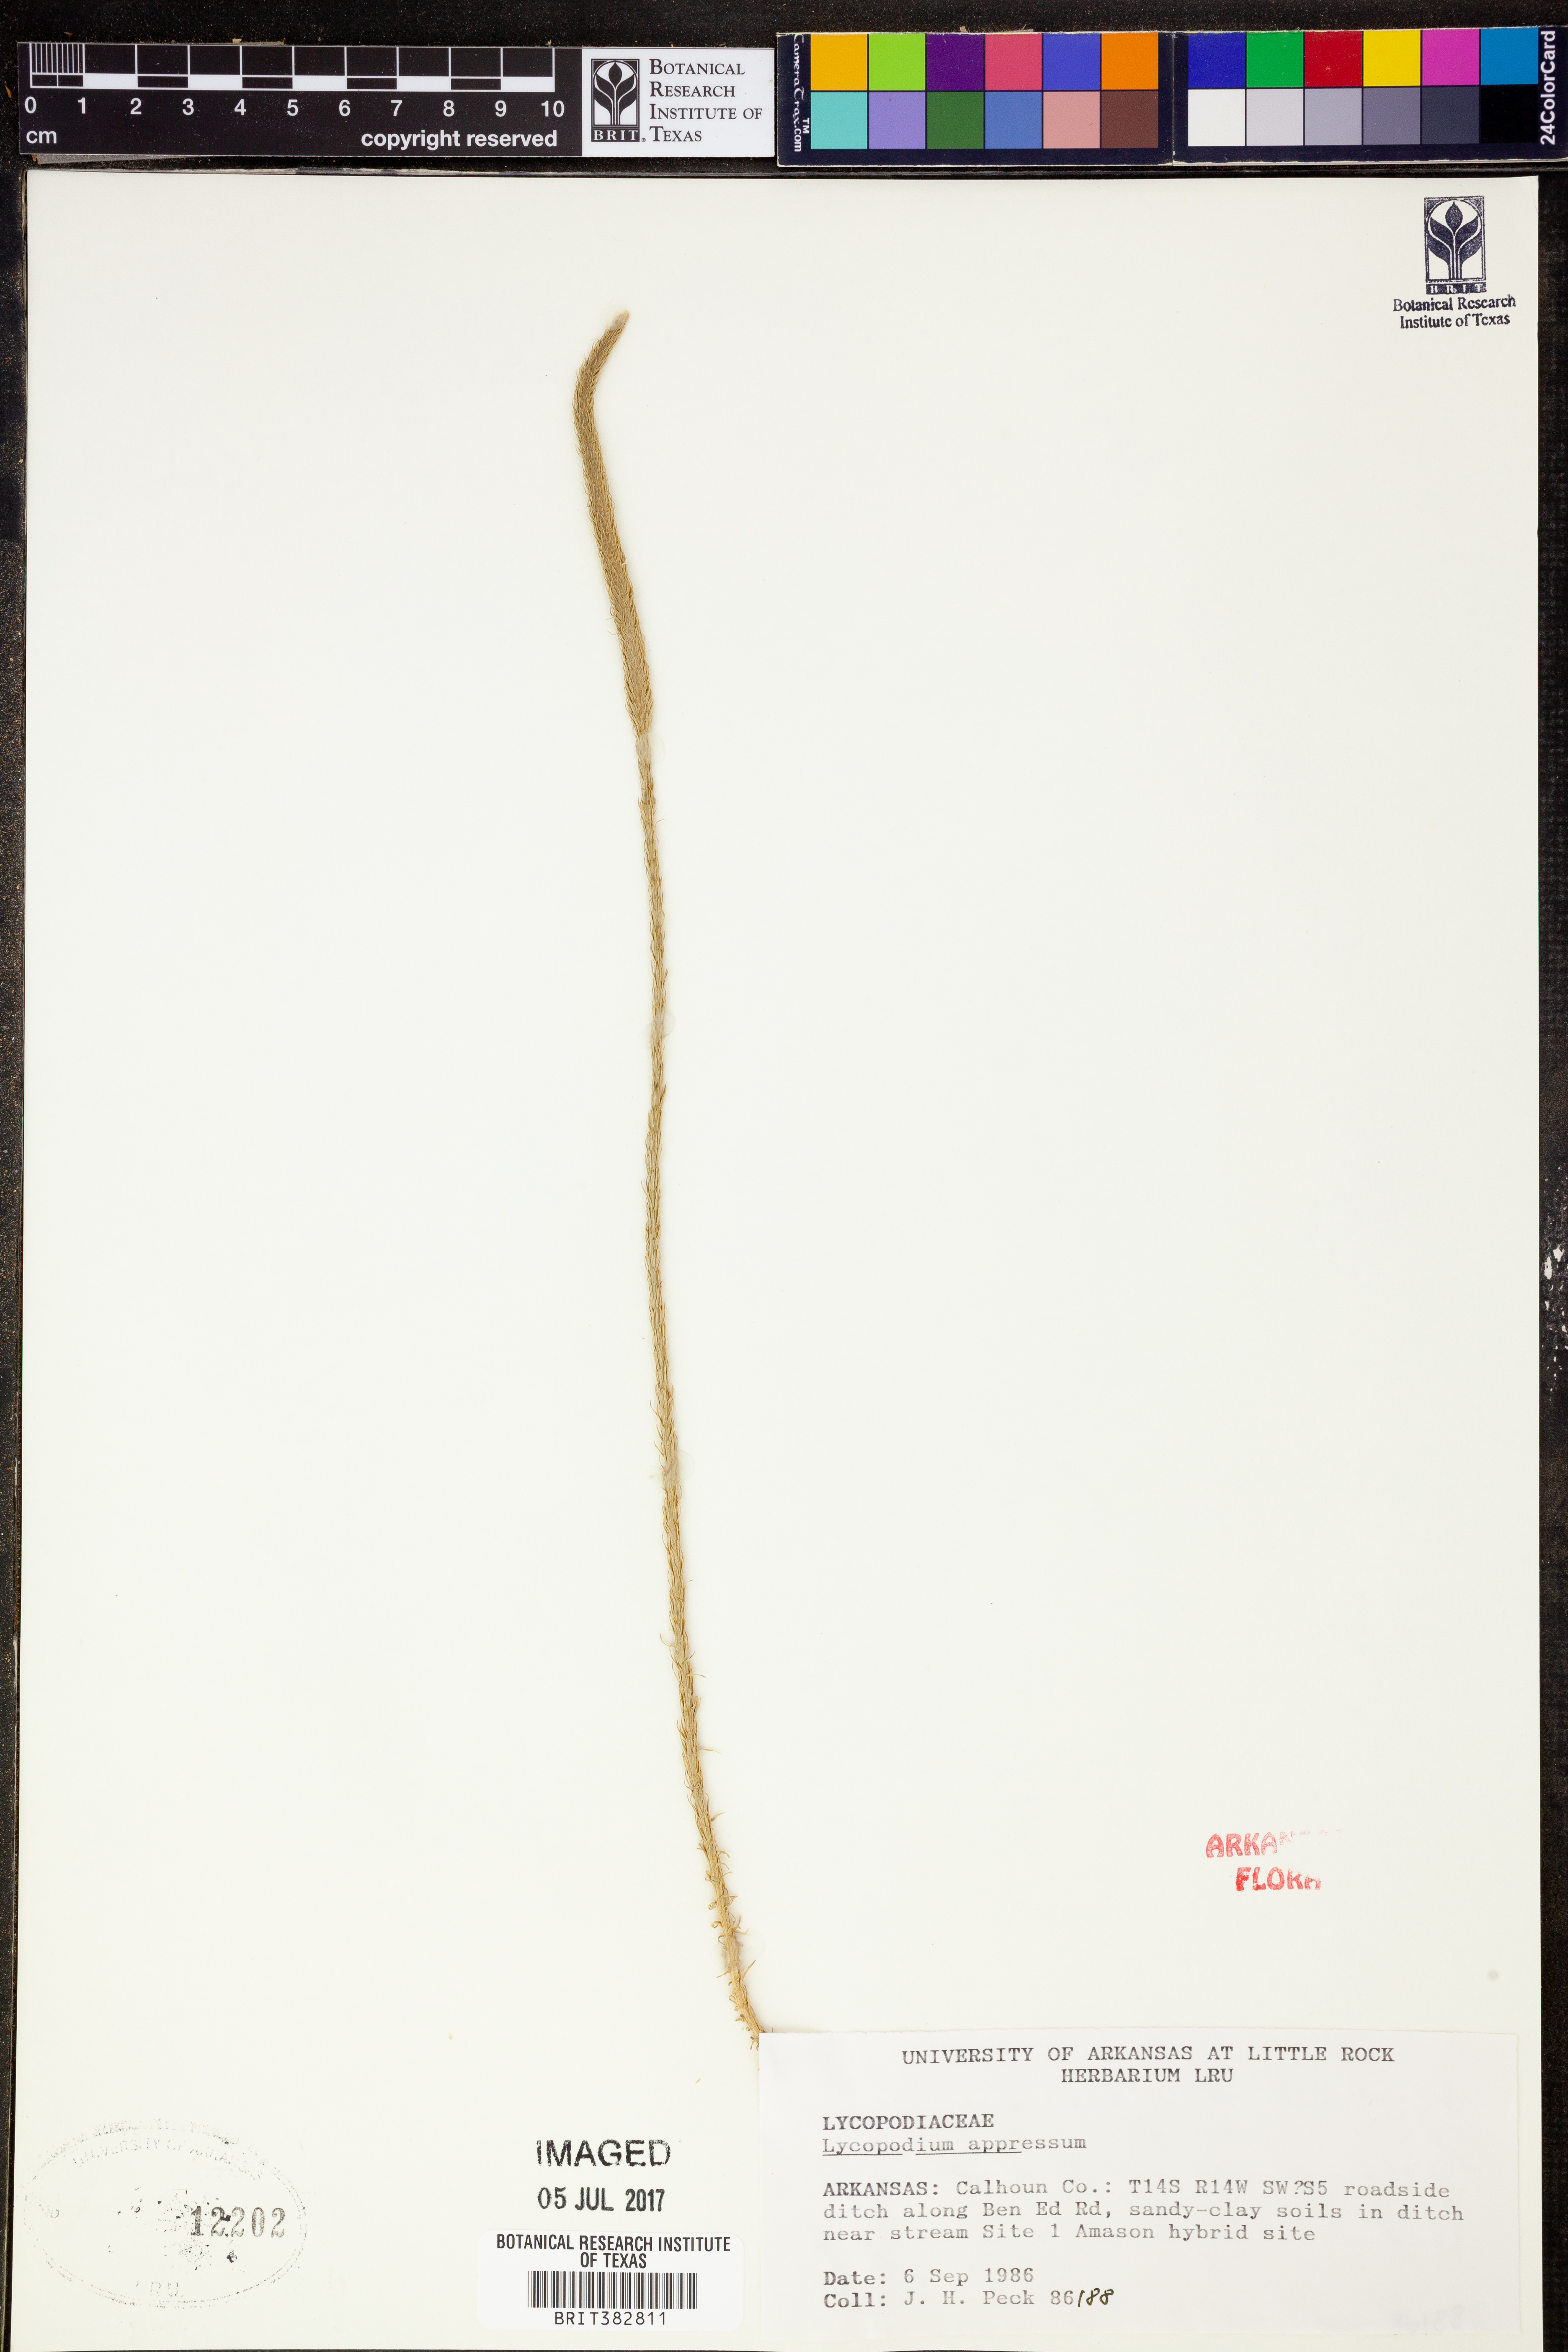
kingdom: Plantae
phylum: Tracheophyta
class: Lycopodiopsida
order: Lycopodiales
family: Lycopodiaceae
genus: Lycopodiella
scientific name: Lycopodiella appressa
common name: Appressed bog clubmoss
